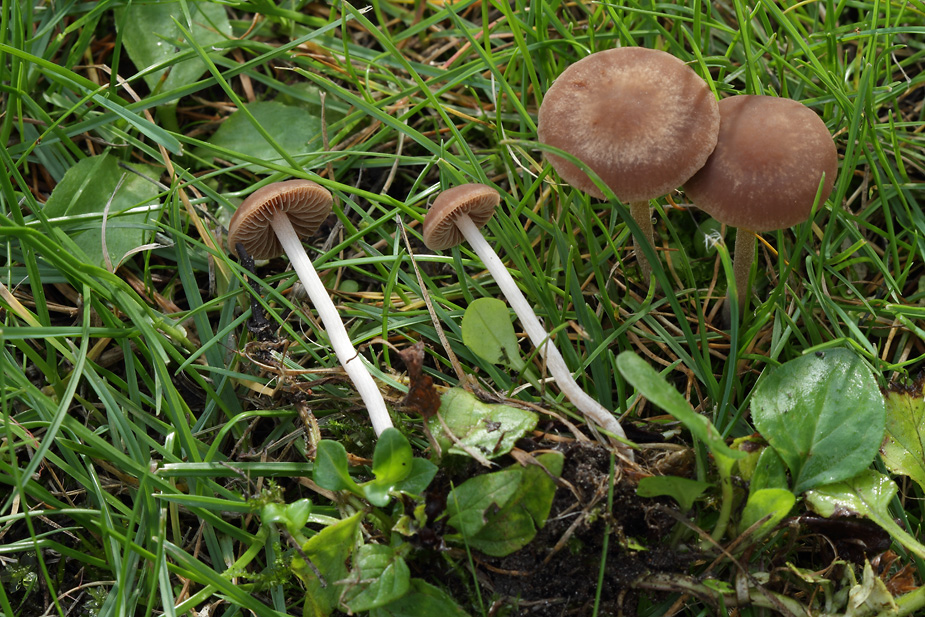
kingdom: Fungi
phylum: Basidiomycota
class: Agaricomycetes
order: Agaricales
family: Bolbitiaceae
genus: Panaeolina
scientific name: Panaeolina foenisecii
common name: høslætsvamp
